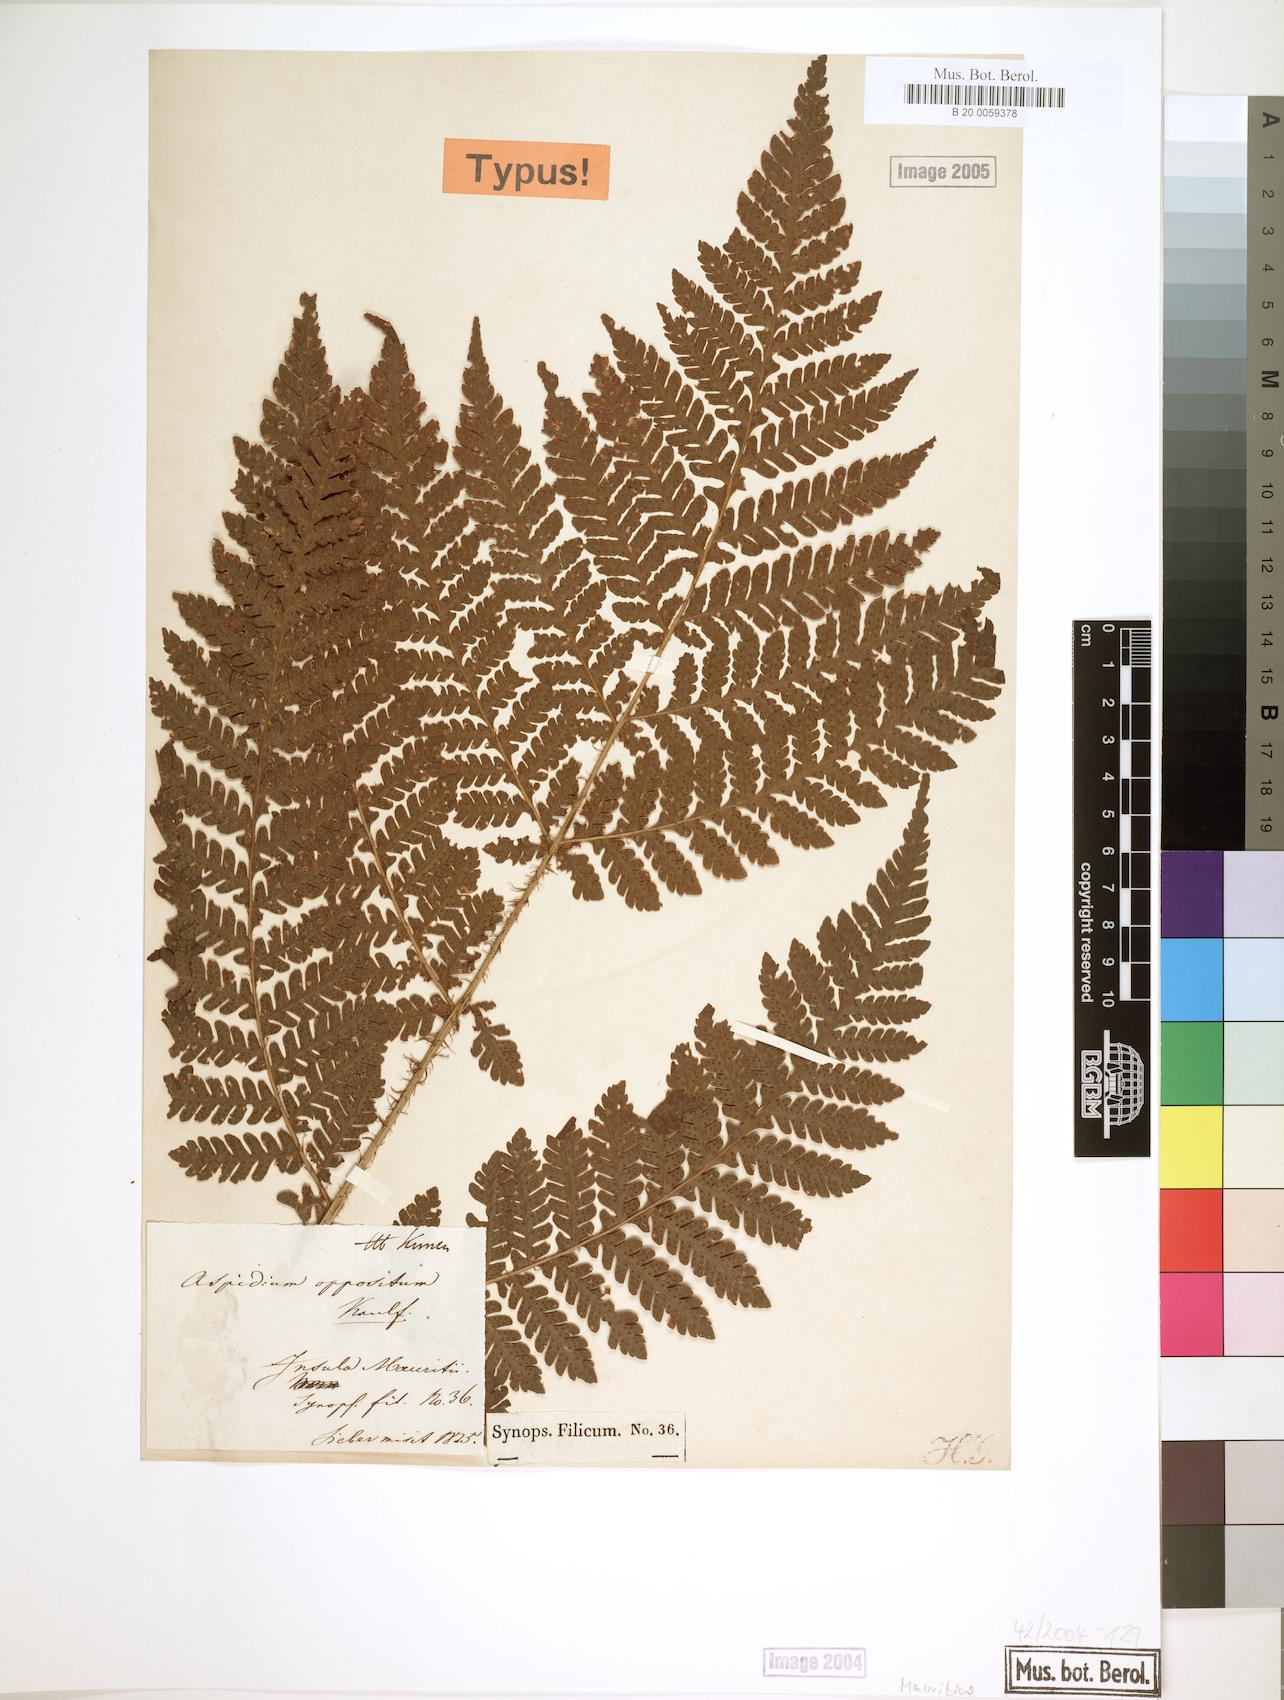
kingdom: Plantae
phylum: Tracheophyta
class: Polypodiopsida
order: Polypodiales
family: Dryopteridaceae
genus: Megalastrum
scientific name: Megalastrum oppositum
